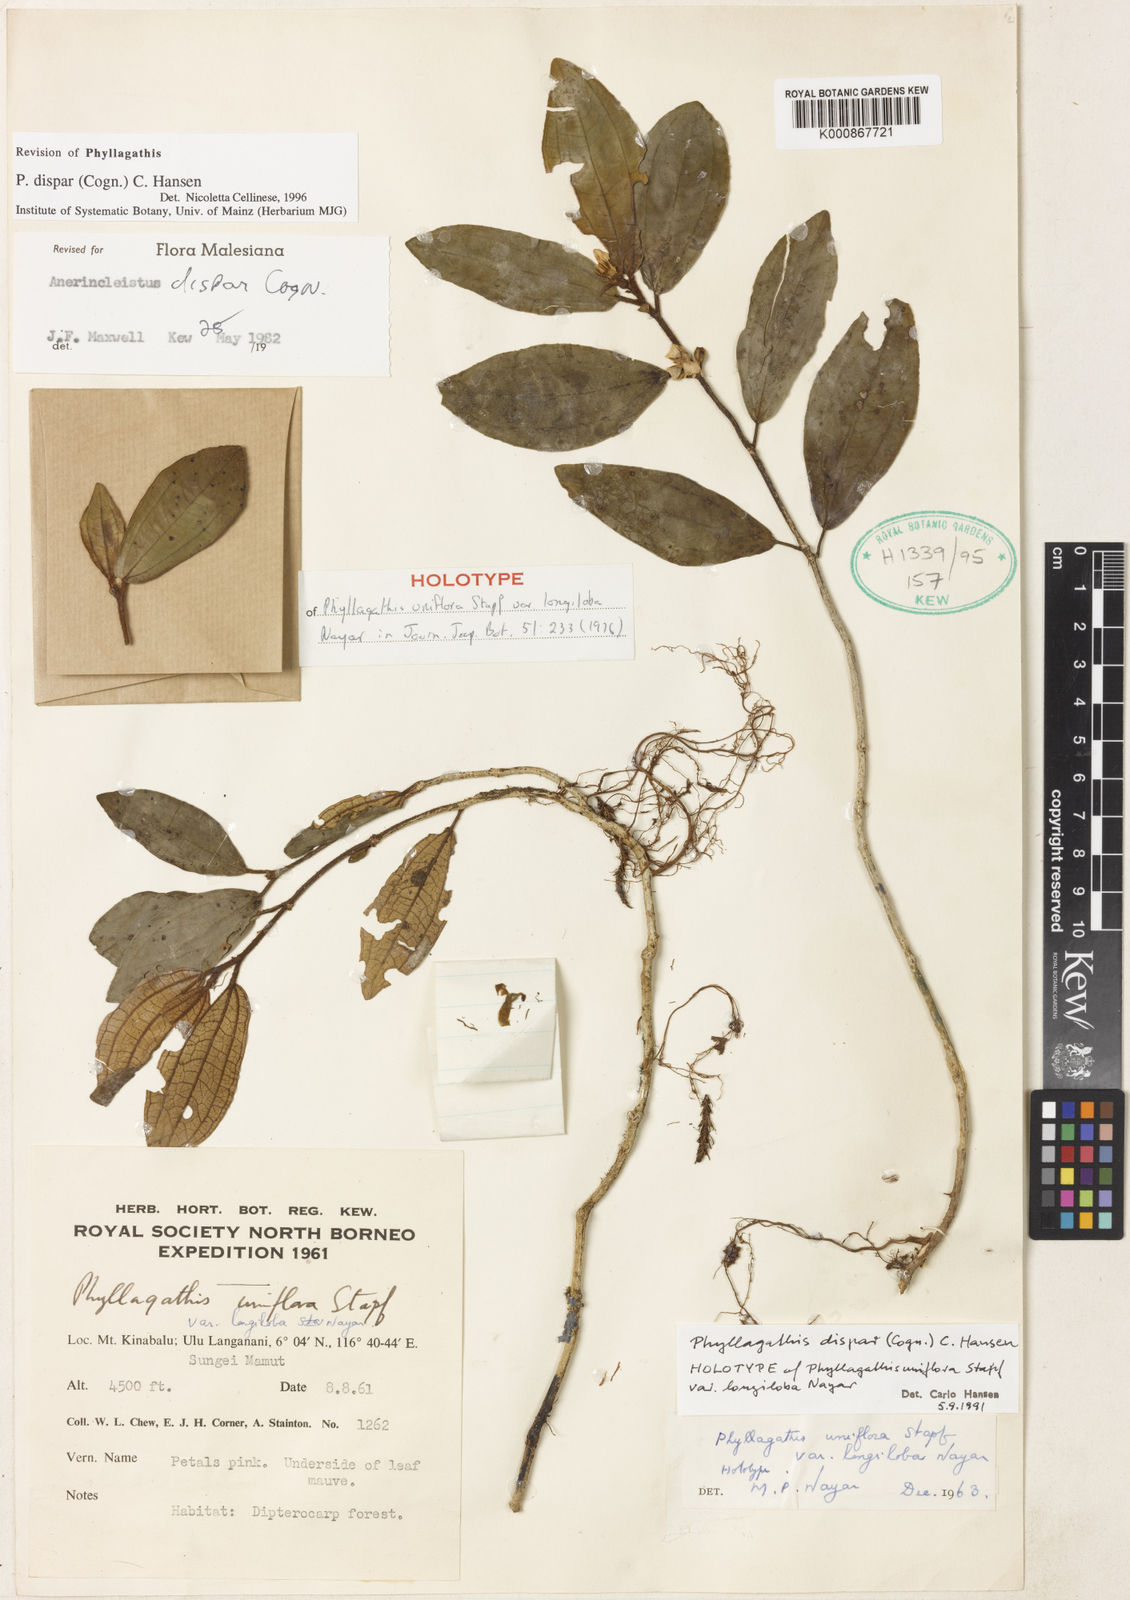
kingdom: Plantae
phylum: Tracheophyta
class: Magnoliopsida
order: Myrtales
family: Melastomataceae
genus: Anerincleistus
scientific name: Anerincleistus dispar
